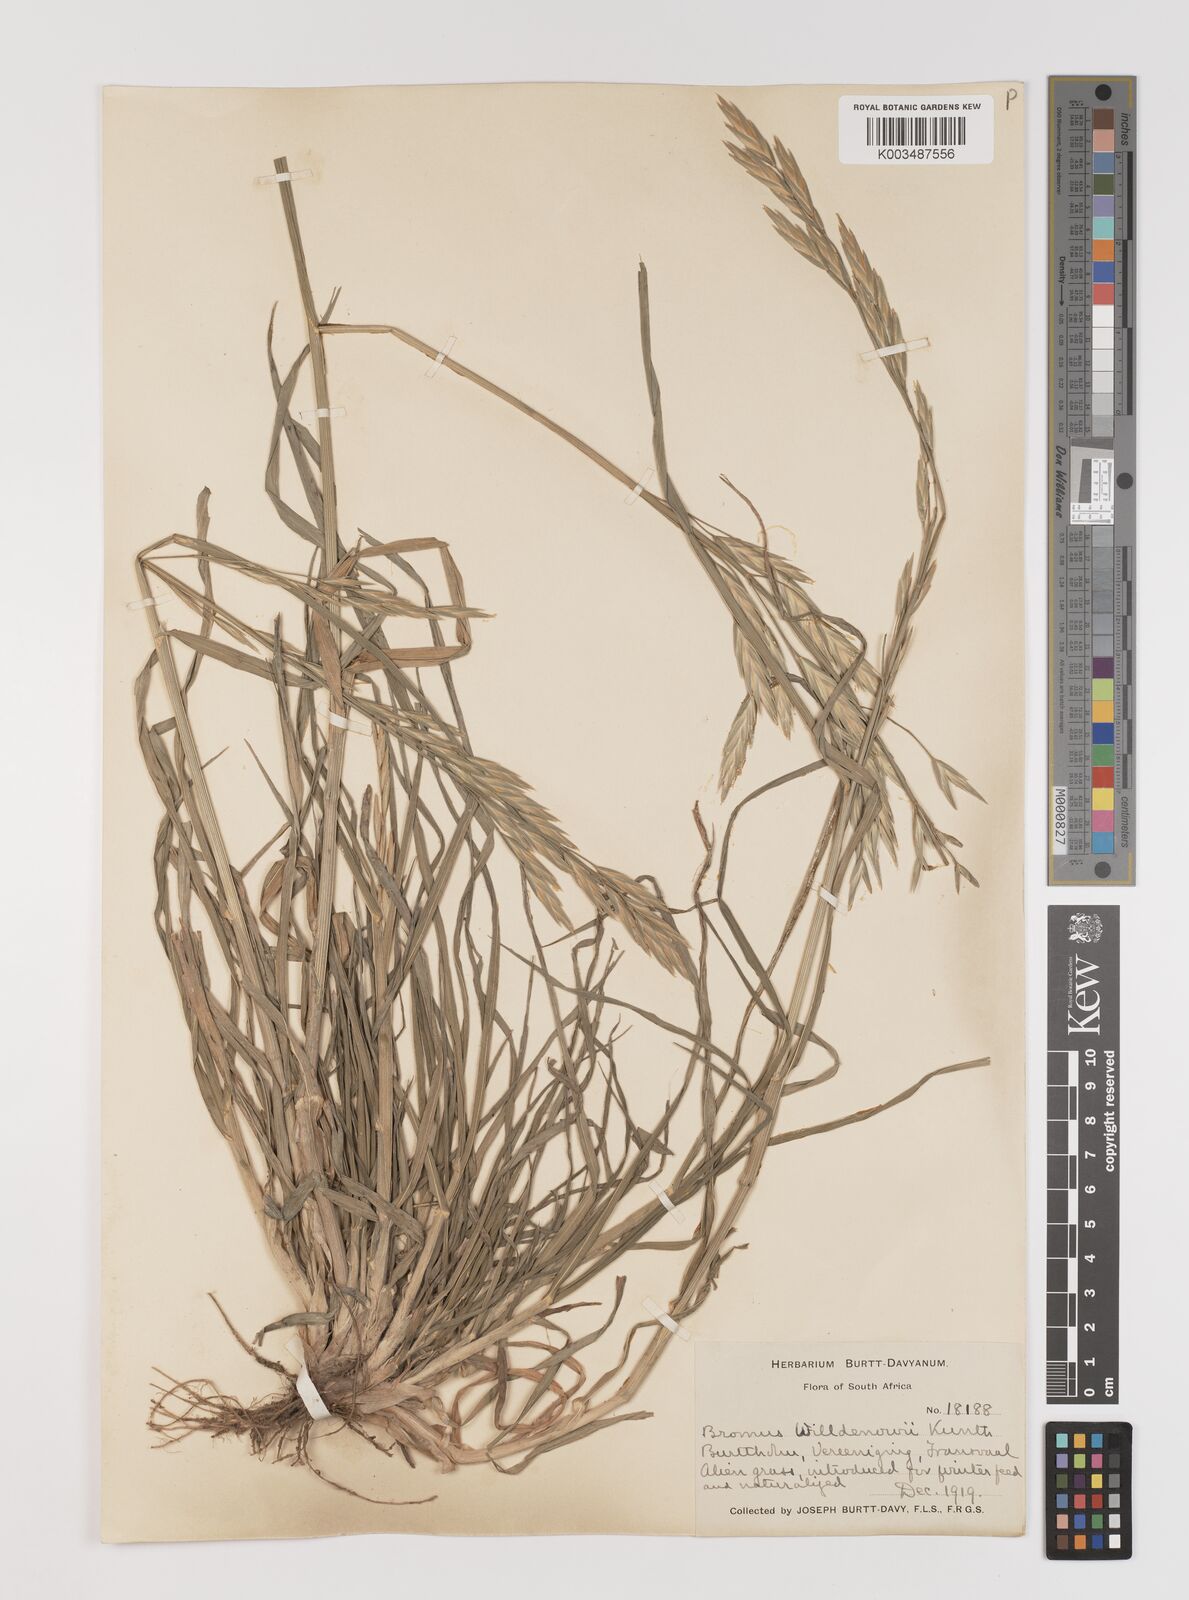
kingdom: Plantae
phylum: Tracheophyta
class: Liliopsida
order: Poales
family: Poaceae
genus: Bromus
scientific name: Bromus catharticus
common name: Rescuegrass
